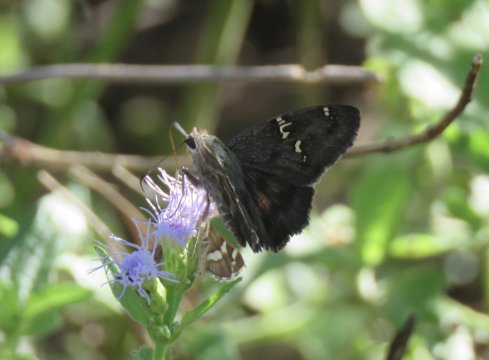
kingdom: Animalia
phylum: Arthropoda
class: Insecta
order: Lepidoptera
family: Hesperiidae
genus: Cabares
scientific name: Cabares potrillo
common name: Potrillo Skipper
